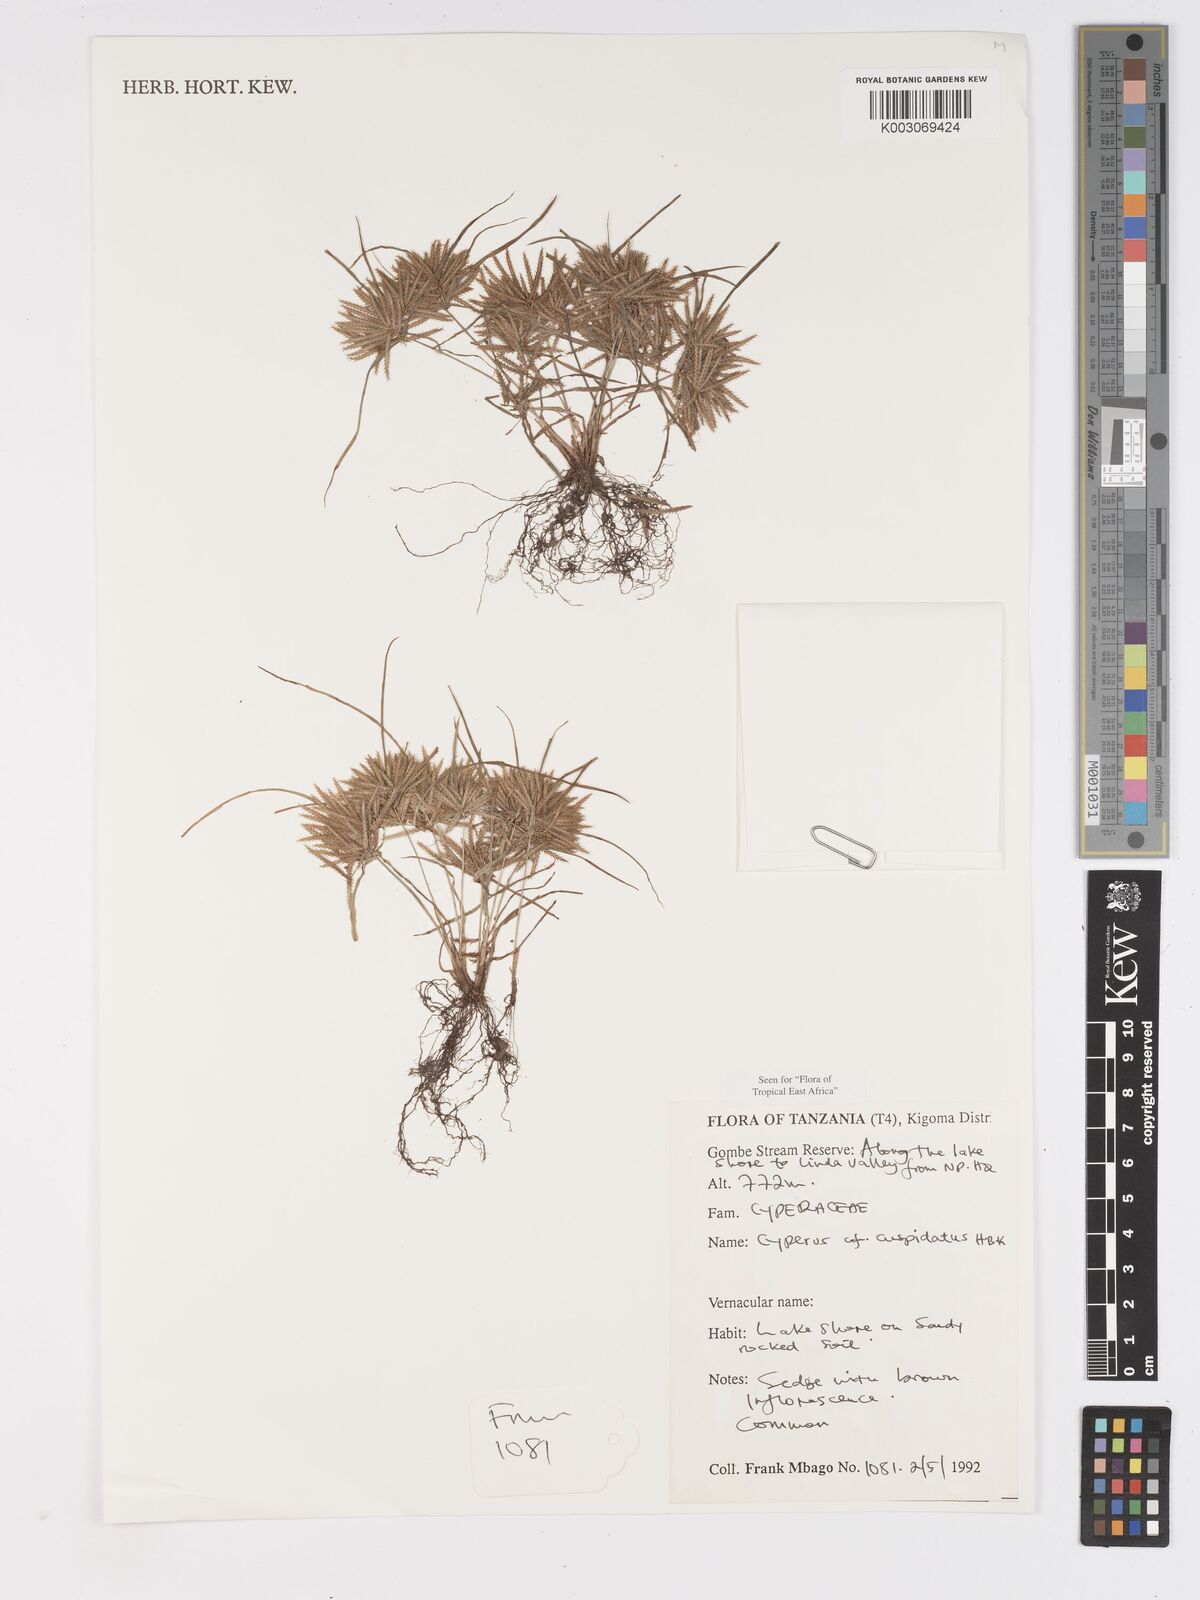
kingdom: Plantae
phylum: Tracheophyta
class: Liliopsida
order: Poales
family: Cyperaceae
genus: Cyperus
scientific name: Cyperus cuspidatus
